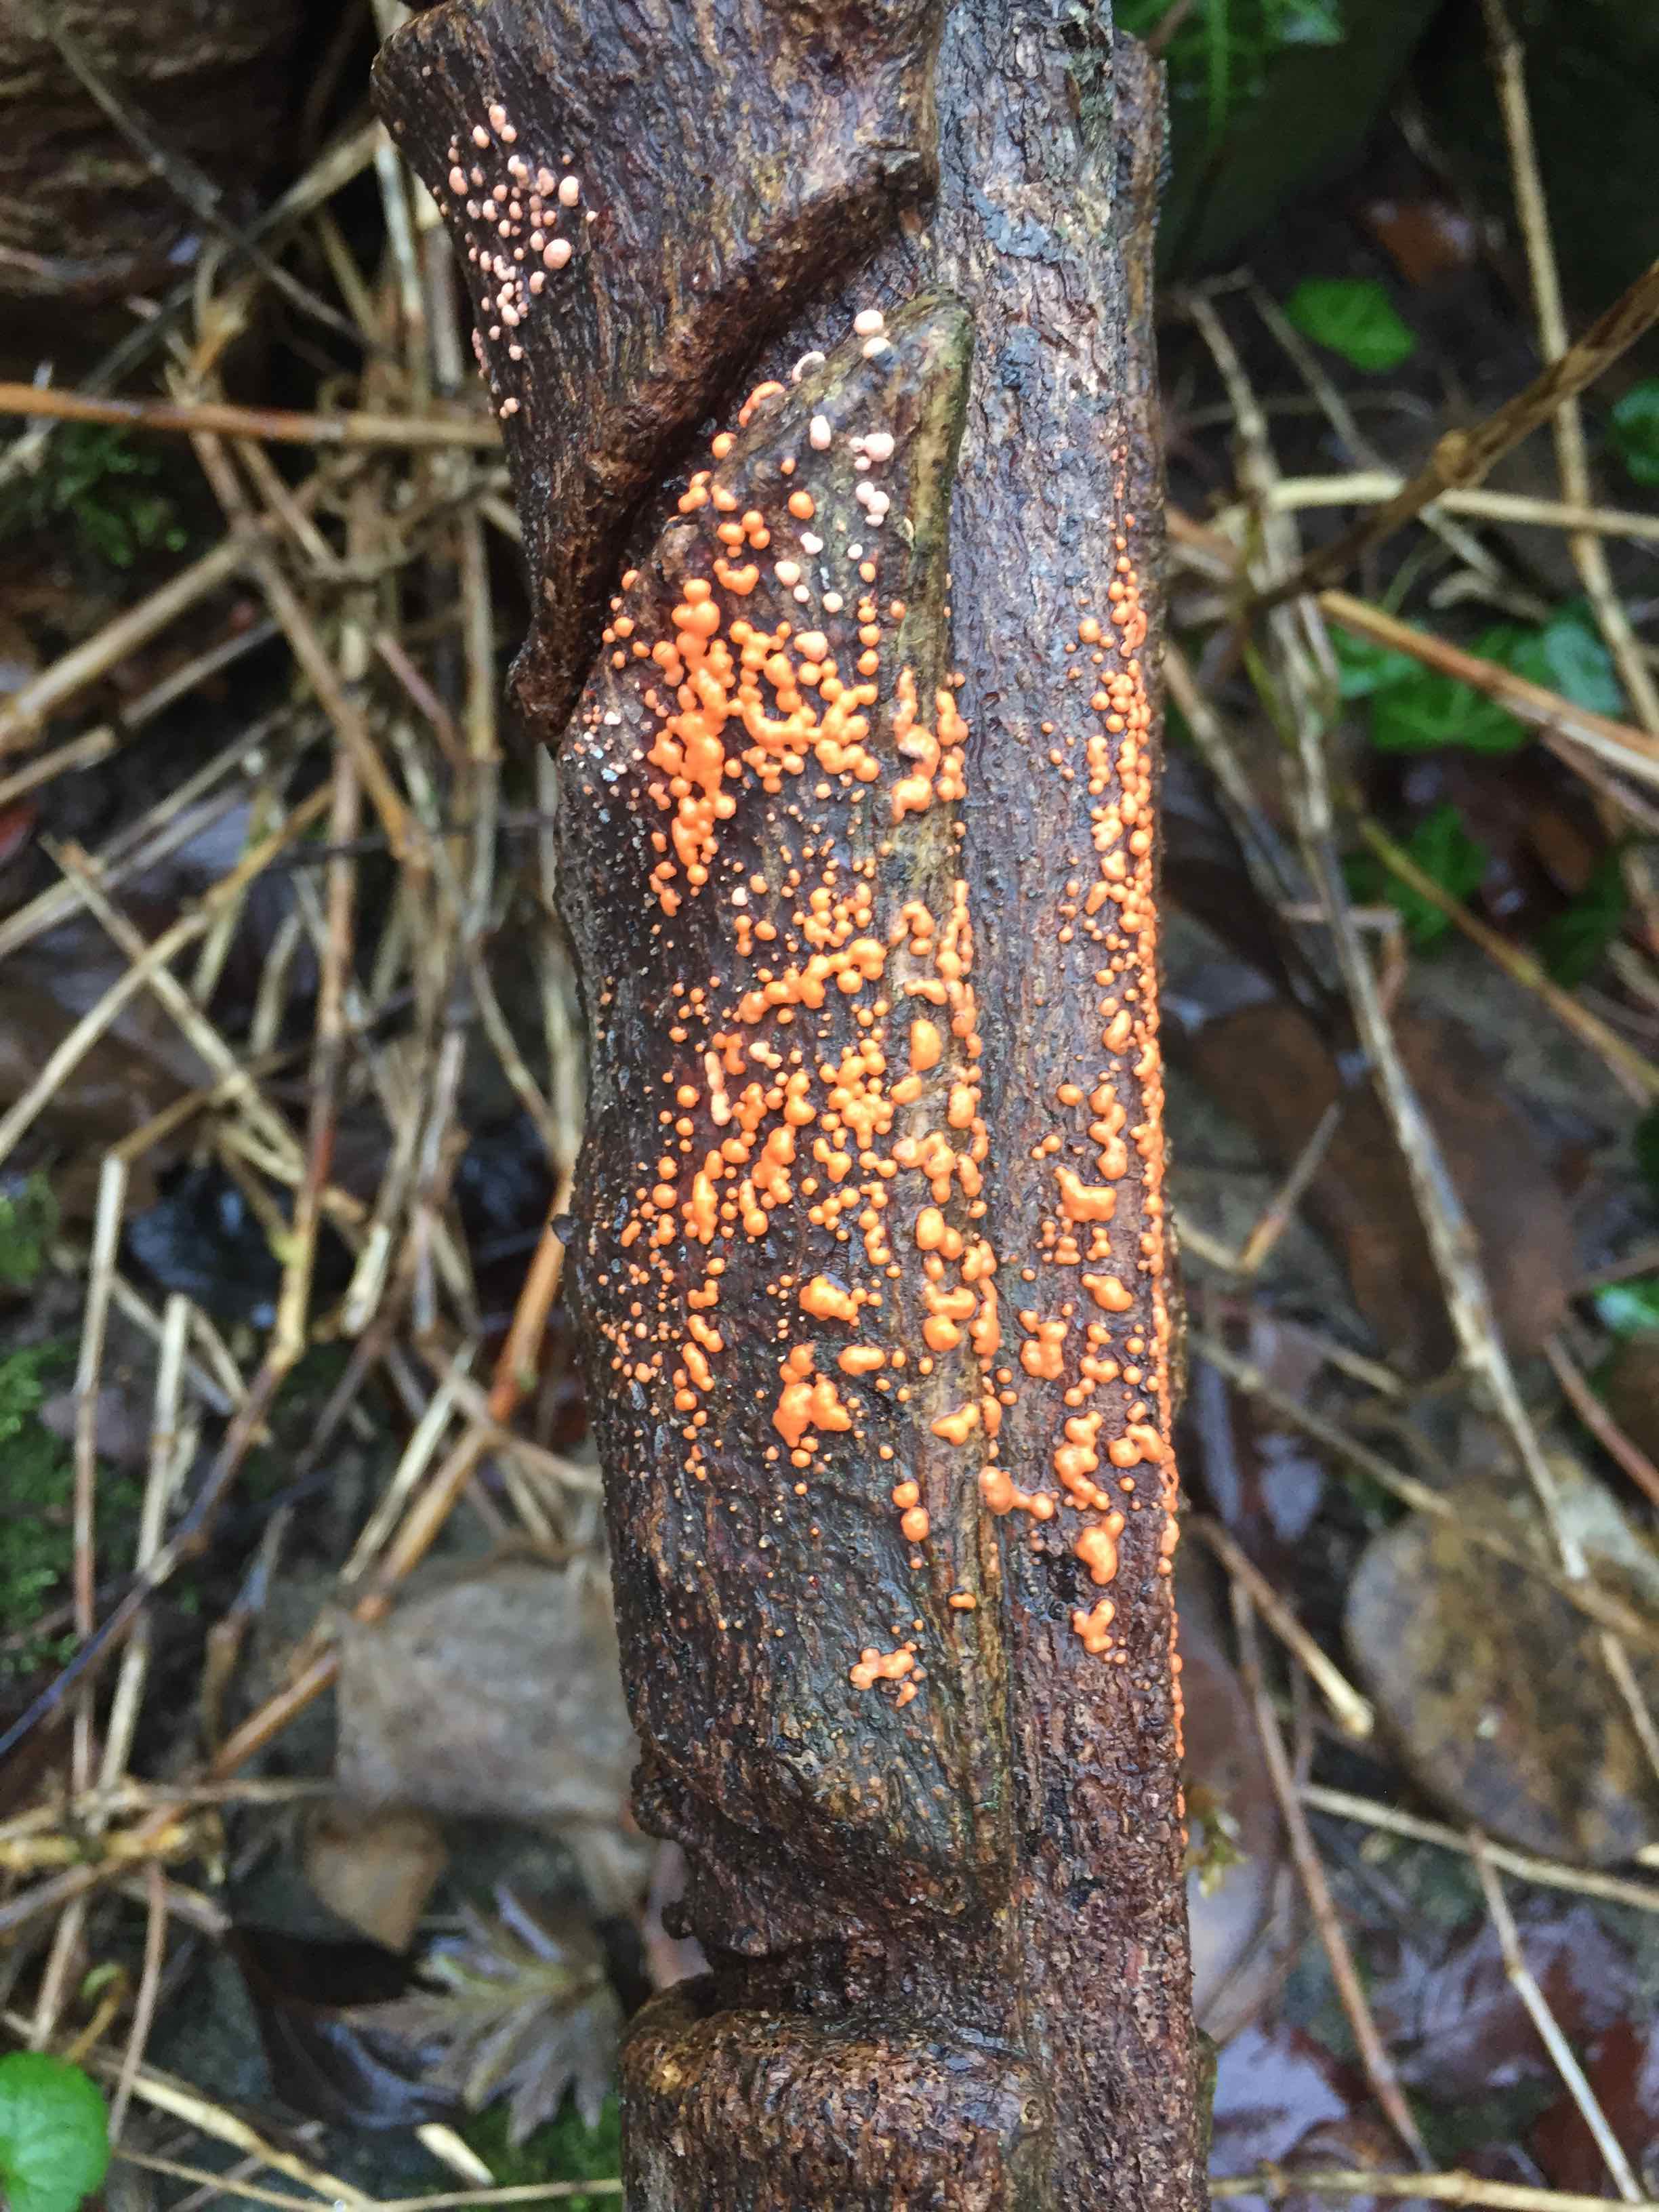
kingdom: Fungi
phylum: Ascomycota
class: Sordariomycetes
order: Hypocreales
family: Nectriaceae
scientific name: Nectriaceae
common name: cinnobersvampfamilien
